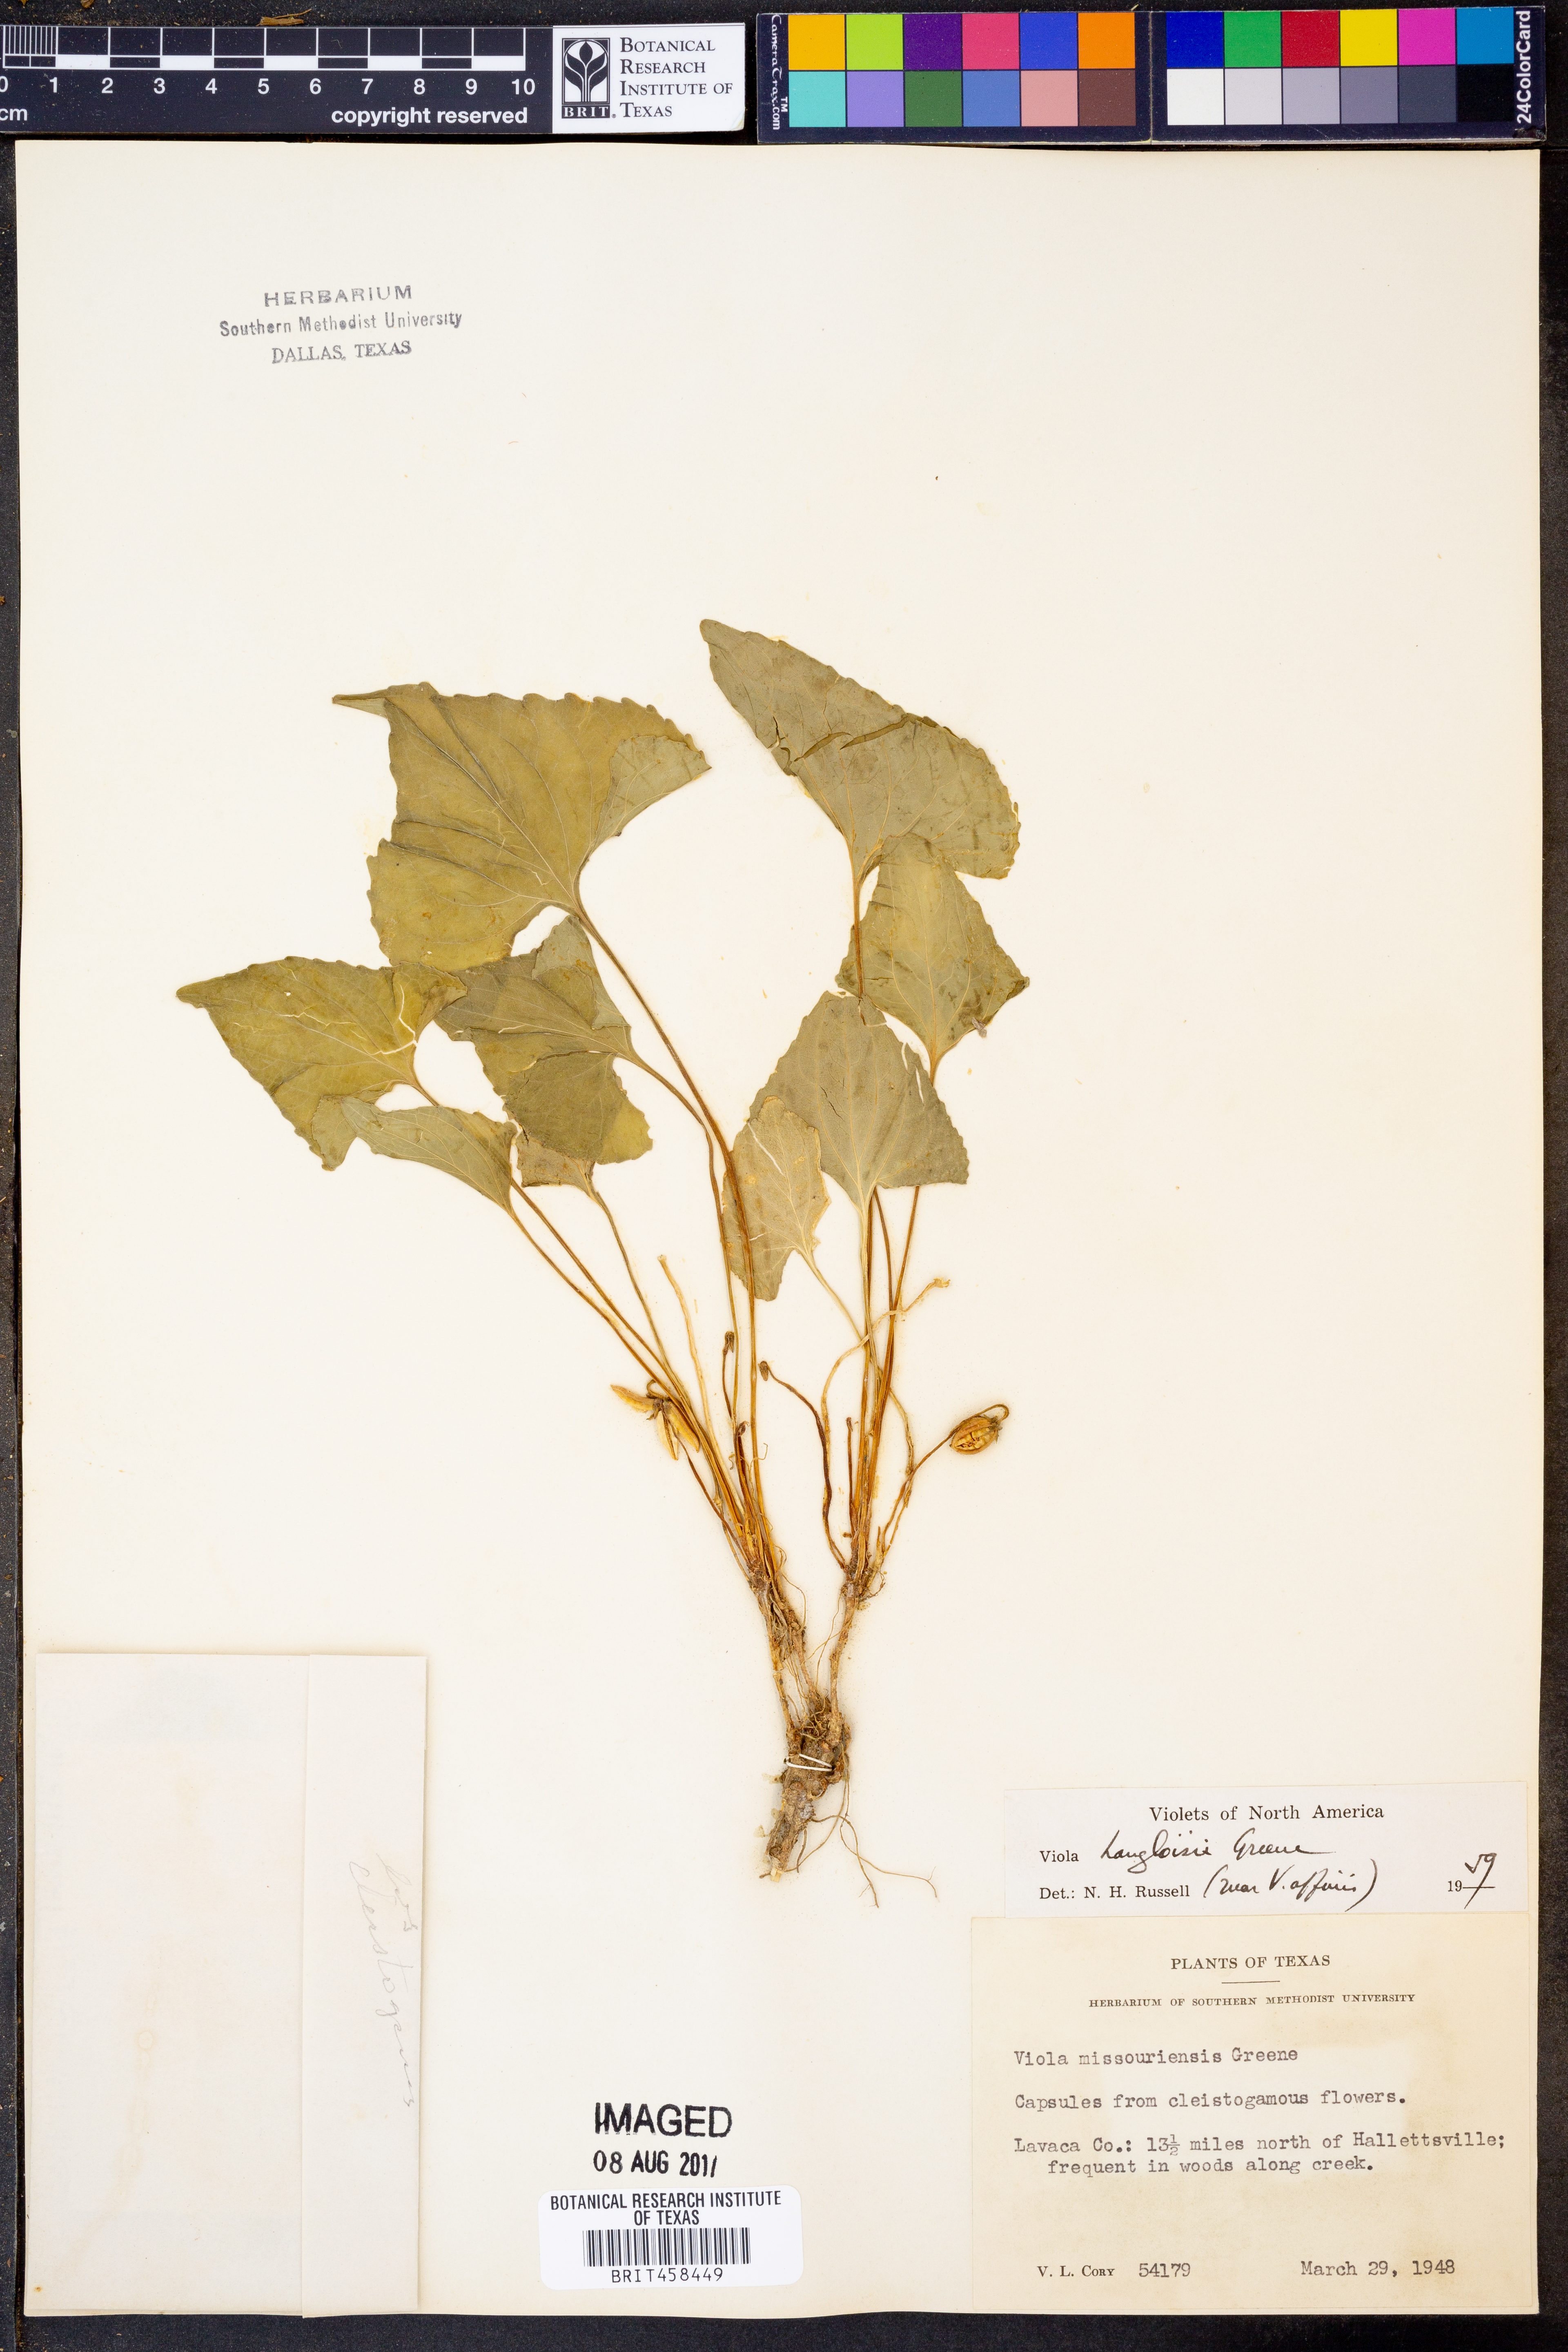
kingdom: Plantae
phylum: Tracheophyta
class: Magnoliopsida
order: Malpighiales
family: Violaceae
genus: Viola
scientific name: Viola langloisii
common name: Langlois' violet
